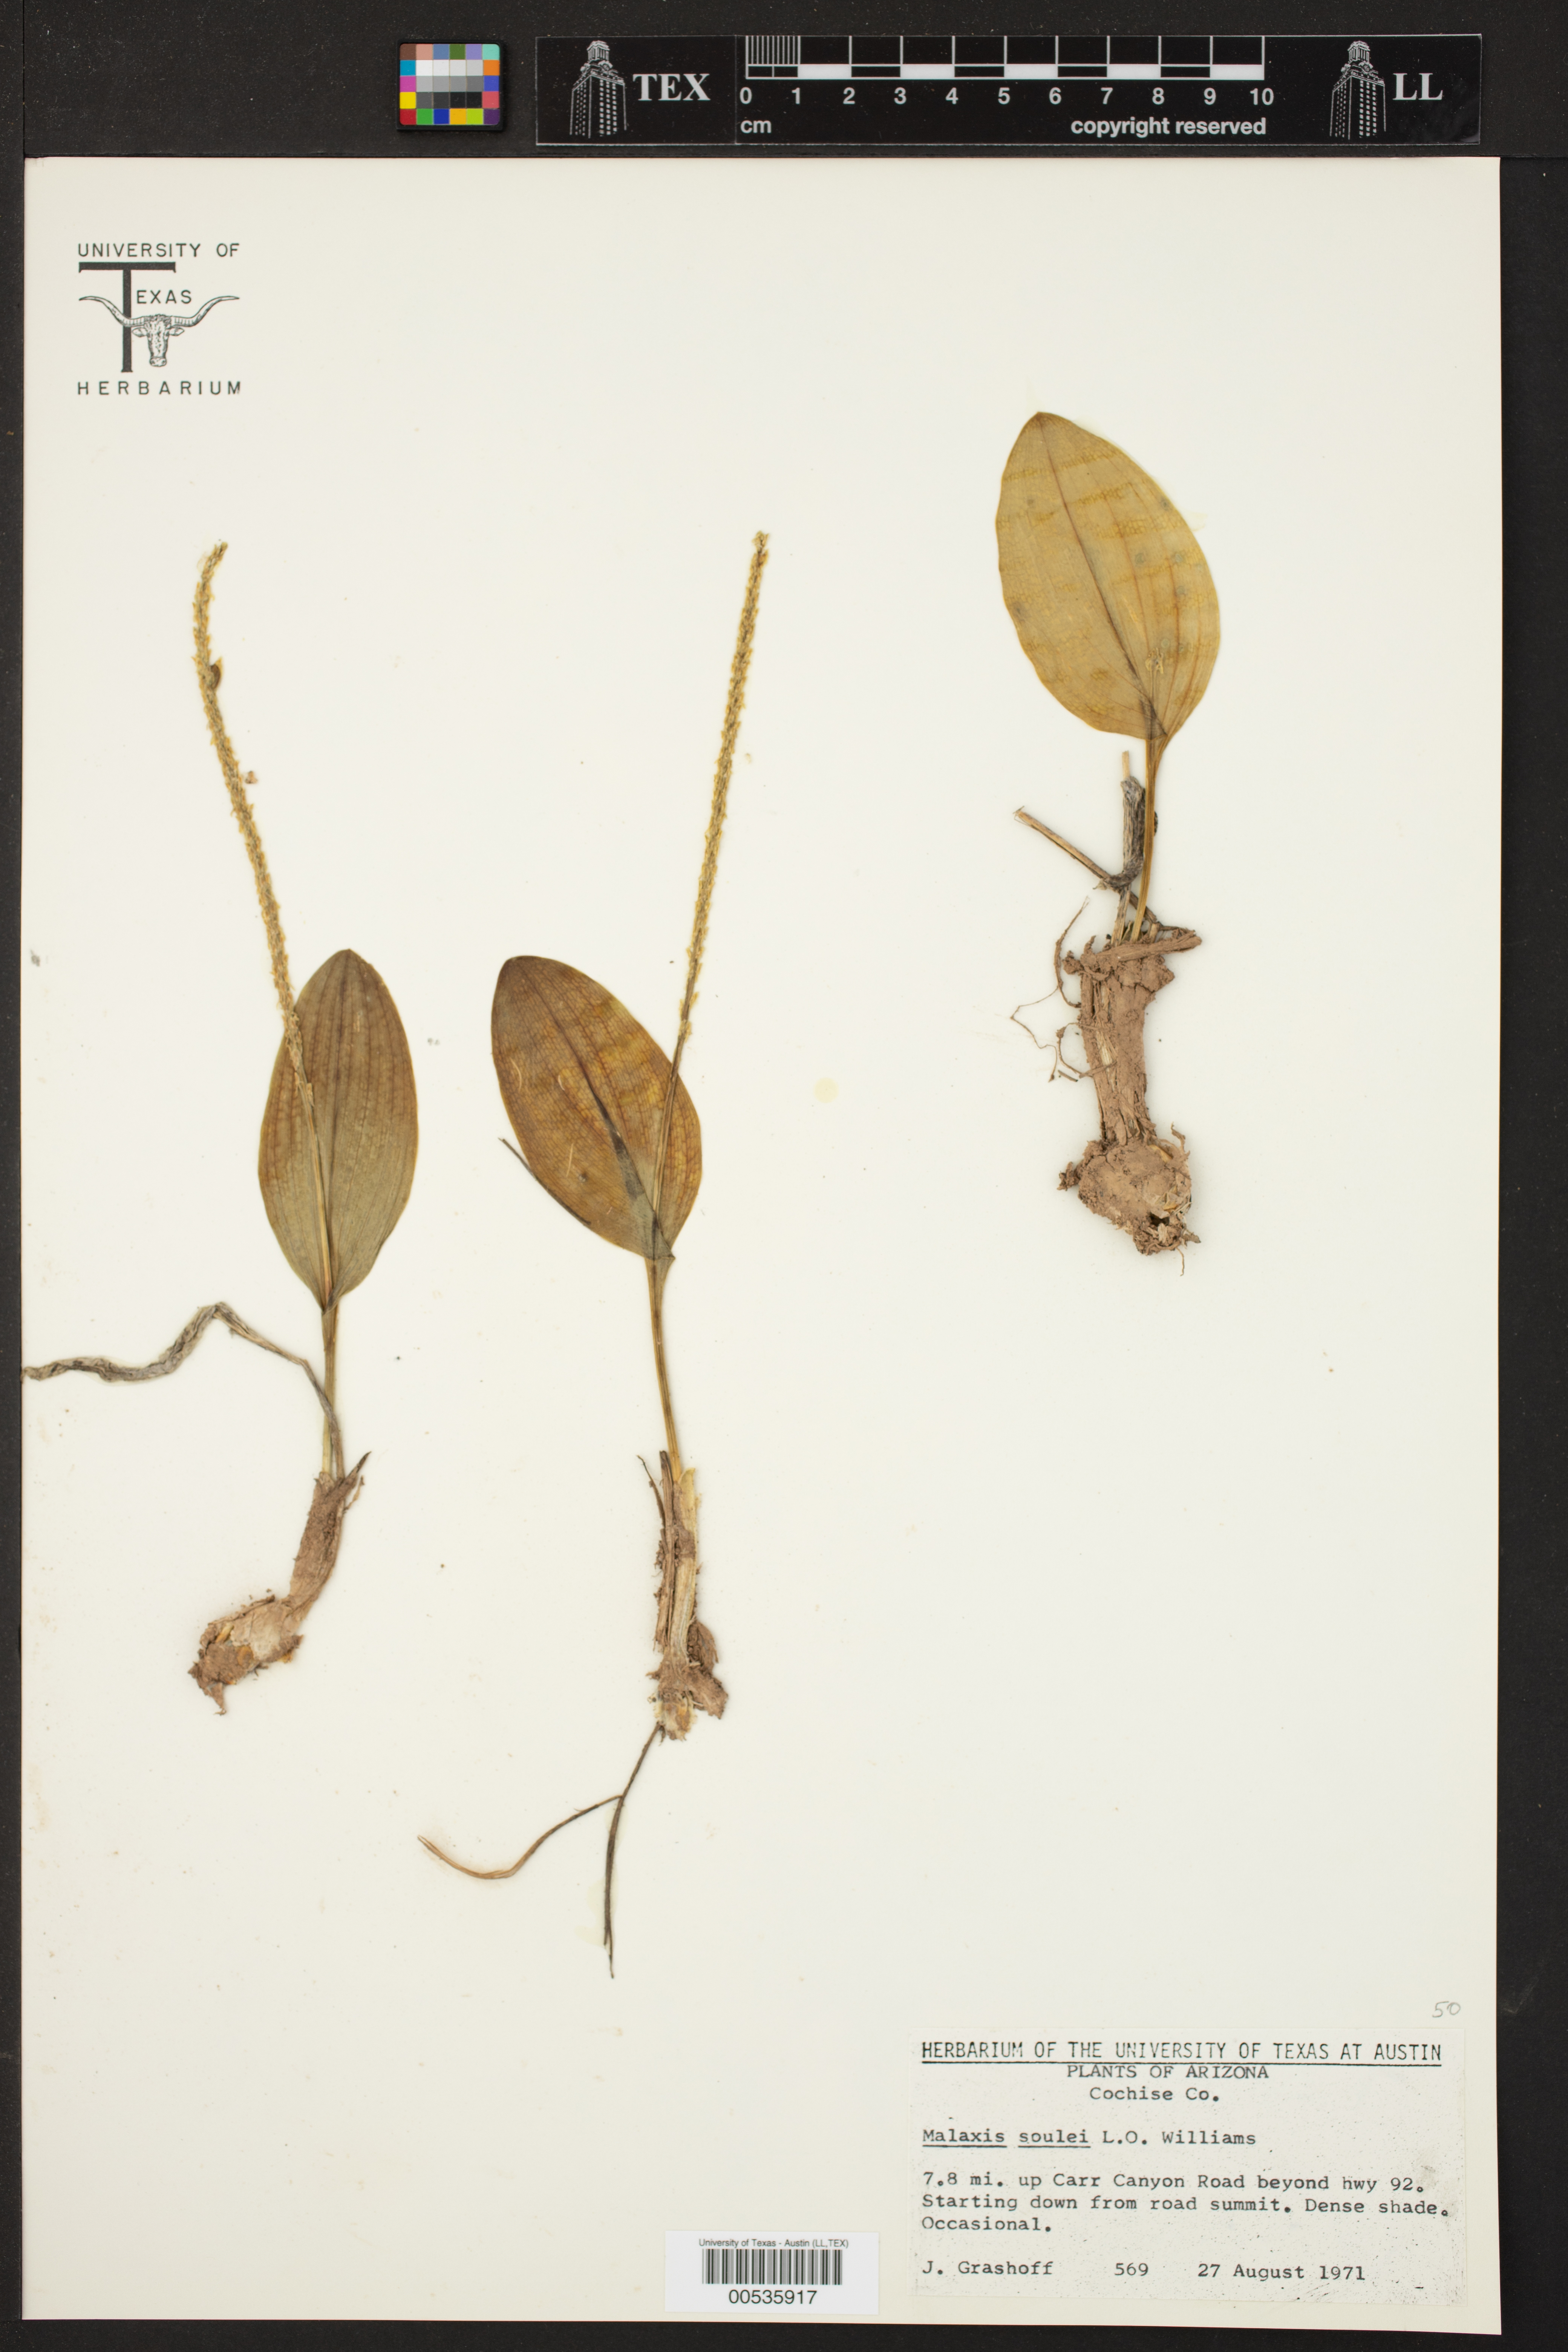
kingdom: Plantae
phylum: Tracheophyta
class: Liliopsida
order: Asparagales
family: Orchidaceae
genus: Malaxis
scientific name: Malaxis macrostachya
